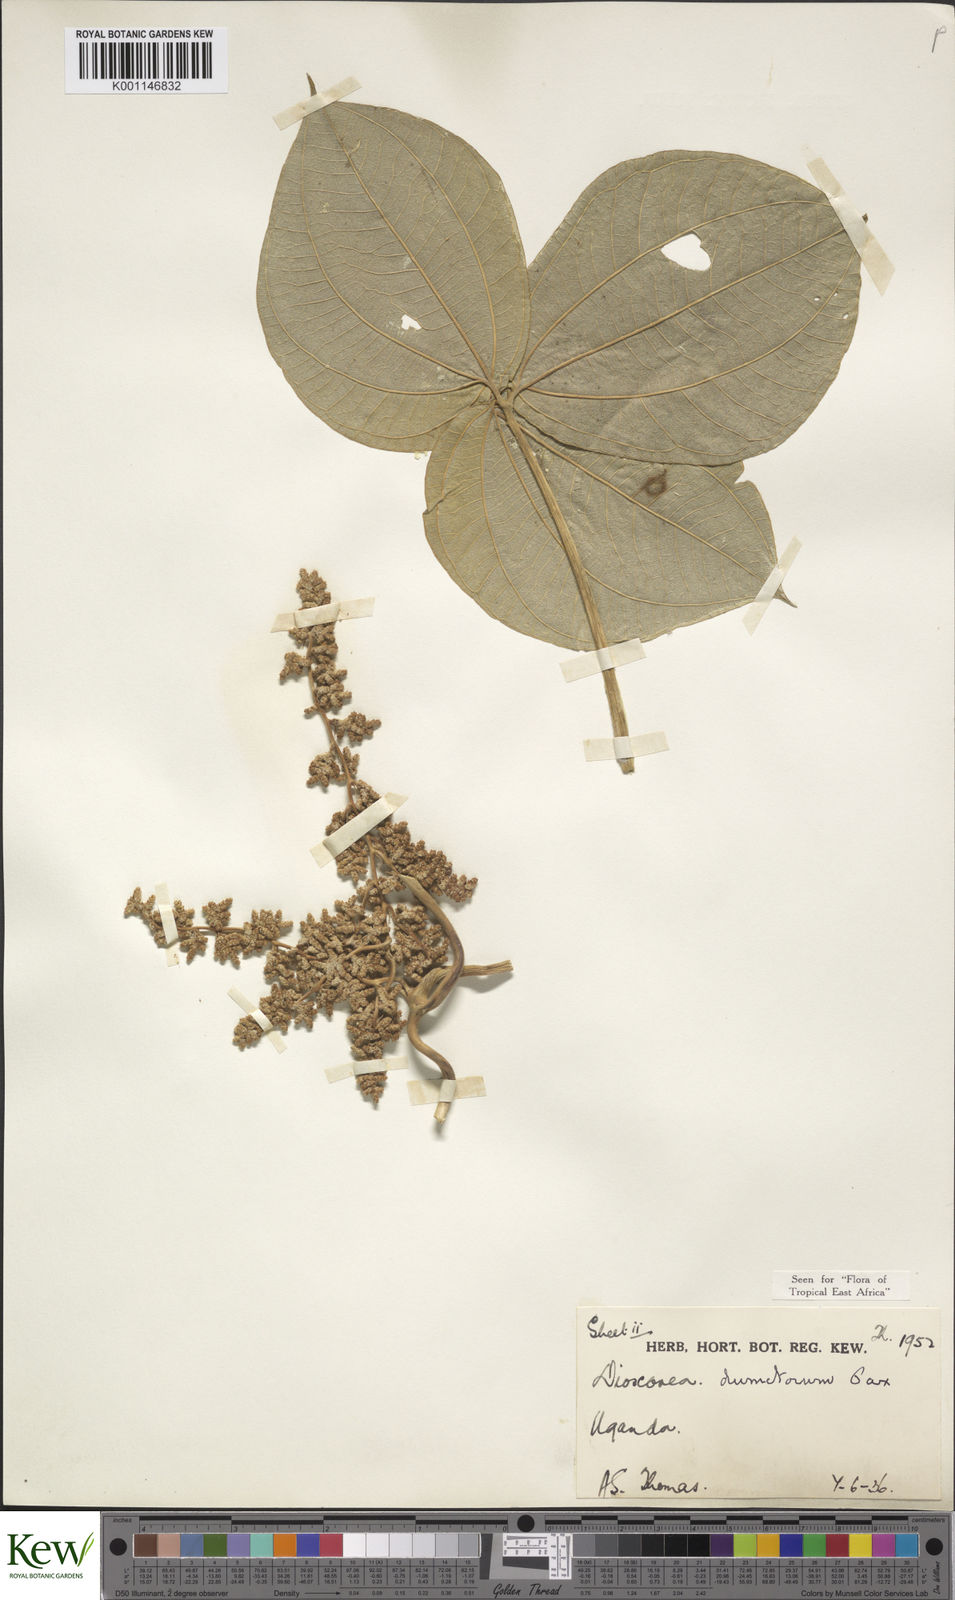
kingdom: Plantae
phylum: Tracheophyta
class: Liliopsida
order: Dioscoreales
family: Dioscoreaceae
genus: Dioscorea
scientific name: Dioscorea dumetorum
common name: African bitter yam
